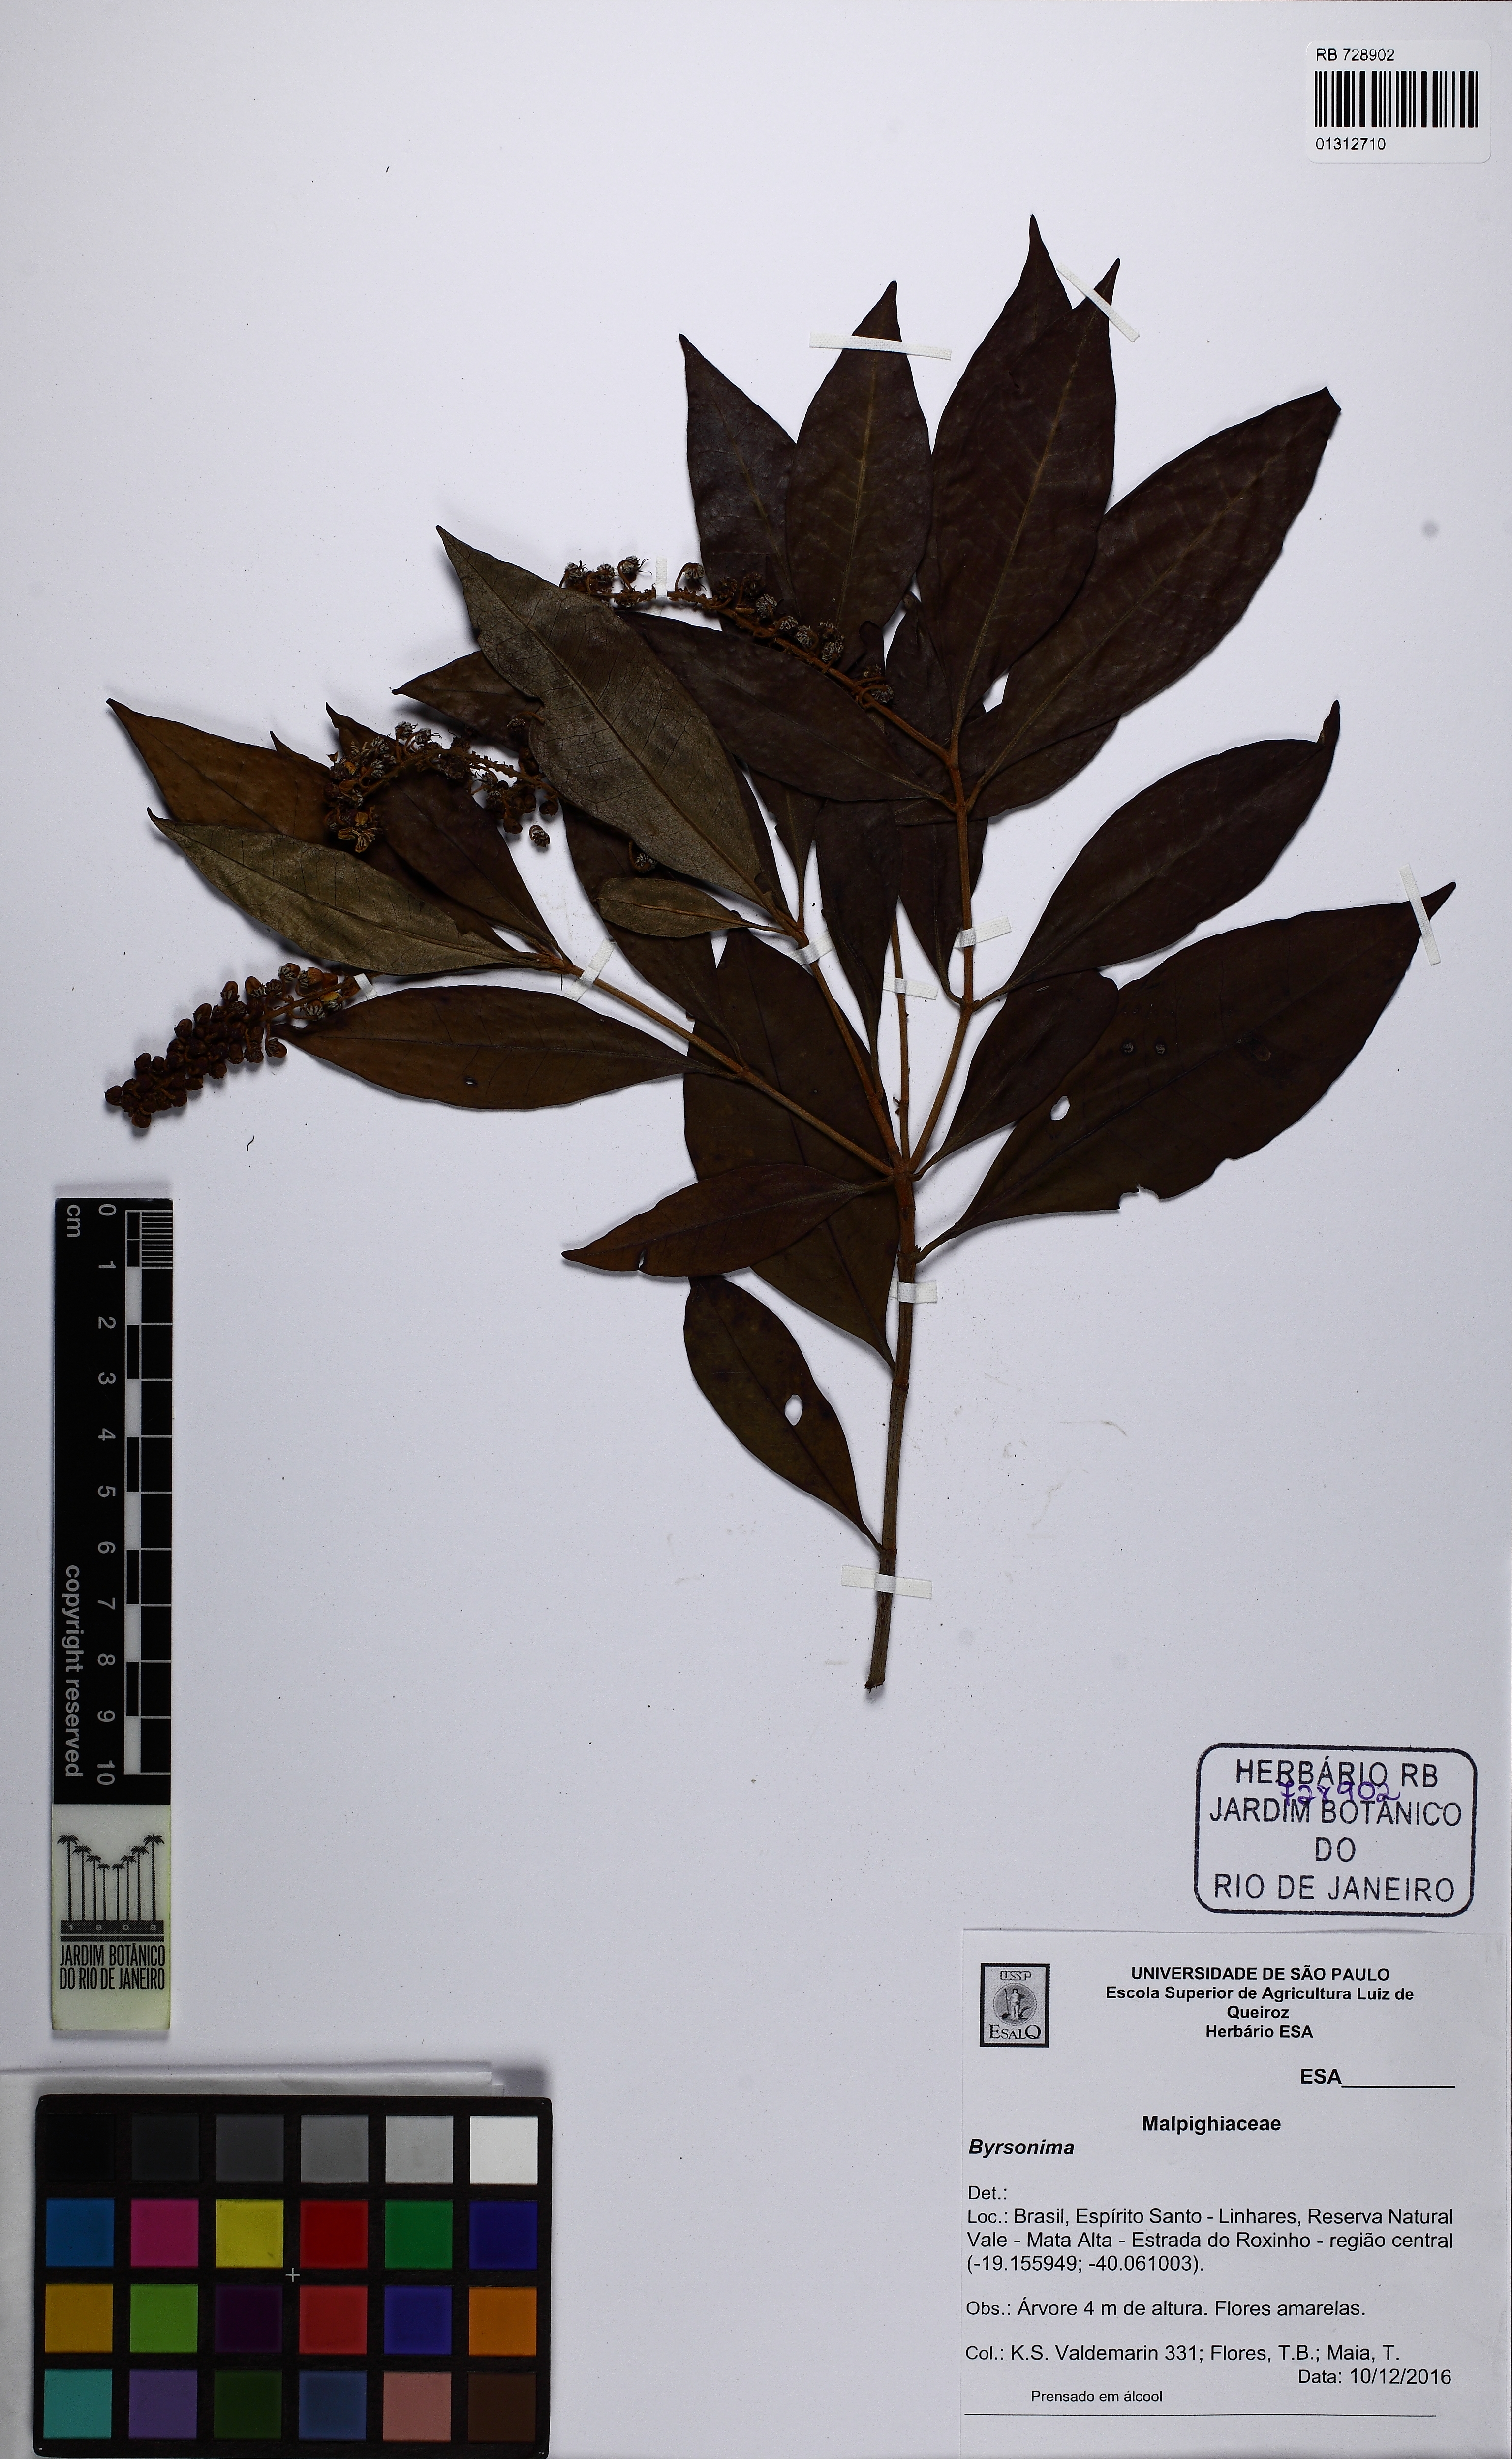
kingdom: Plantae
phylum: Tracheophyta
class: Magnoliopsida
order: Malpighiales
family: Malpighiaceae
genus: Byrsonima
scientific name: Byrsonima
